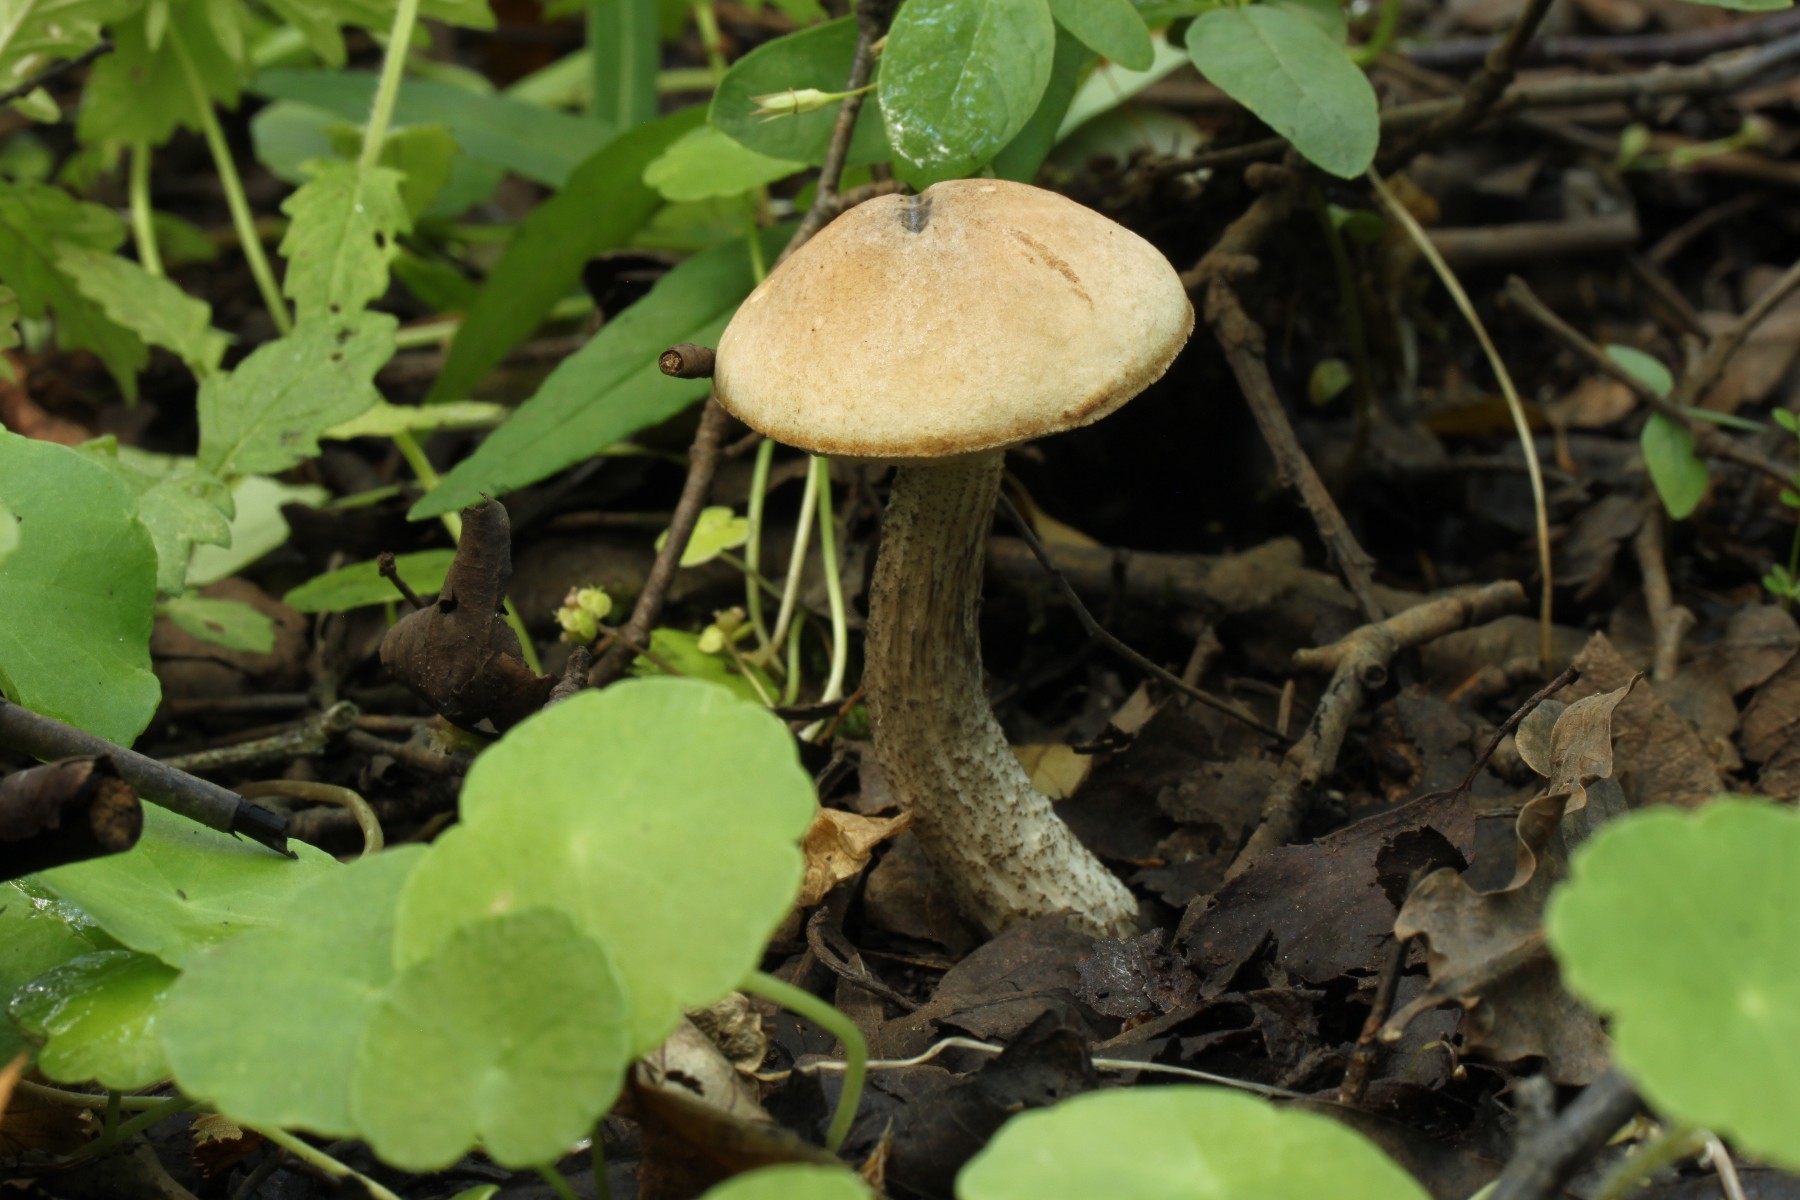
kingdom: Fungi
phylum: Basidiomycota
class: Agaricomycetes
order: Boletales
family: Boletaceae
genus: Leccinum
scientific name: Leccinum scabrum
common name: brun skælrørhat
